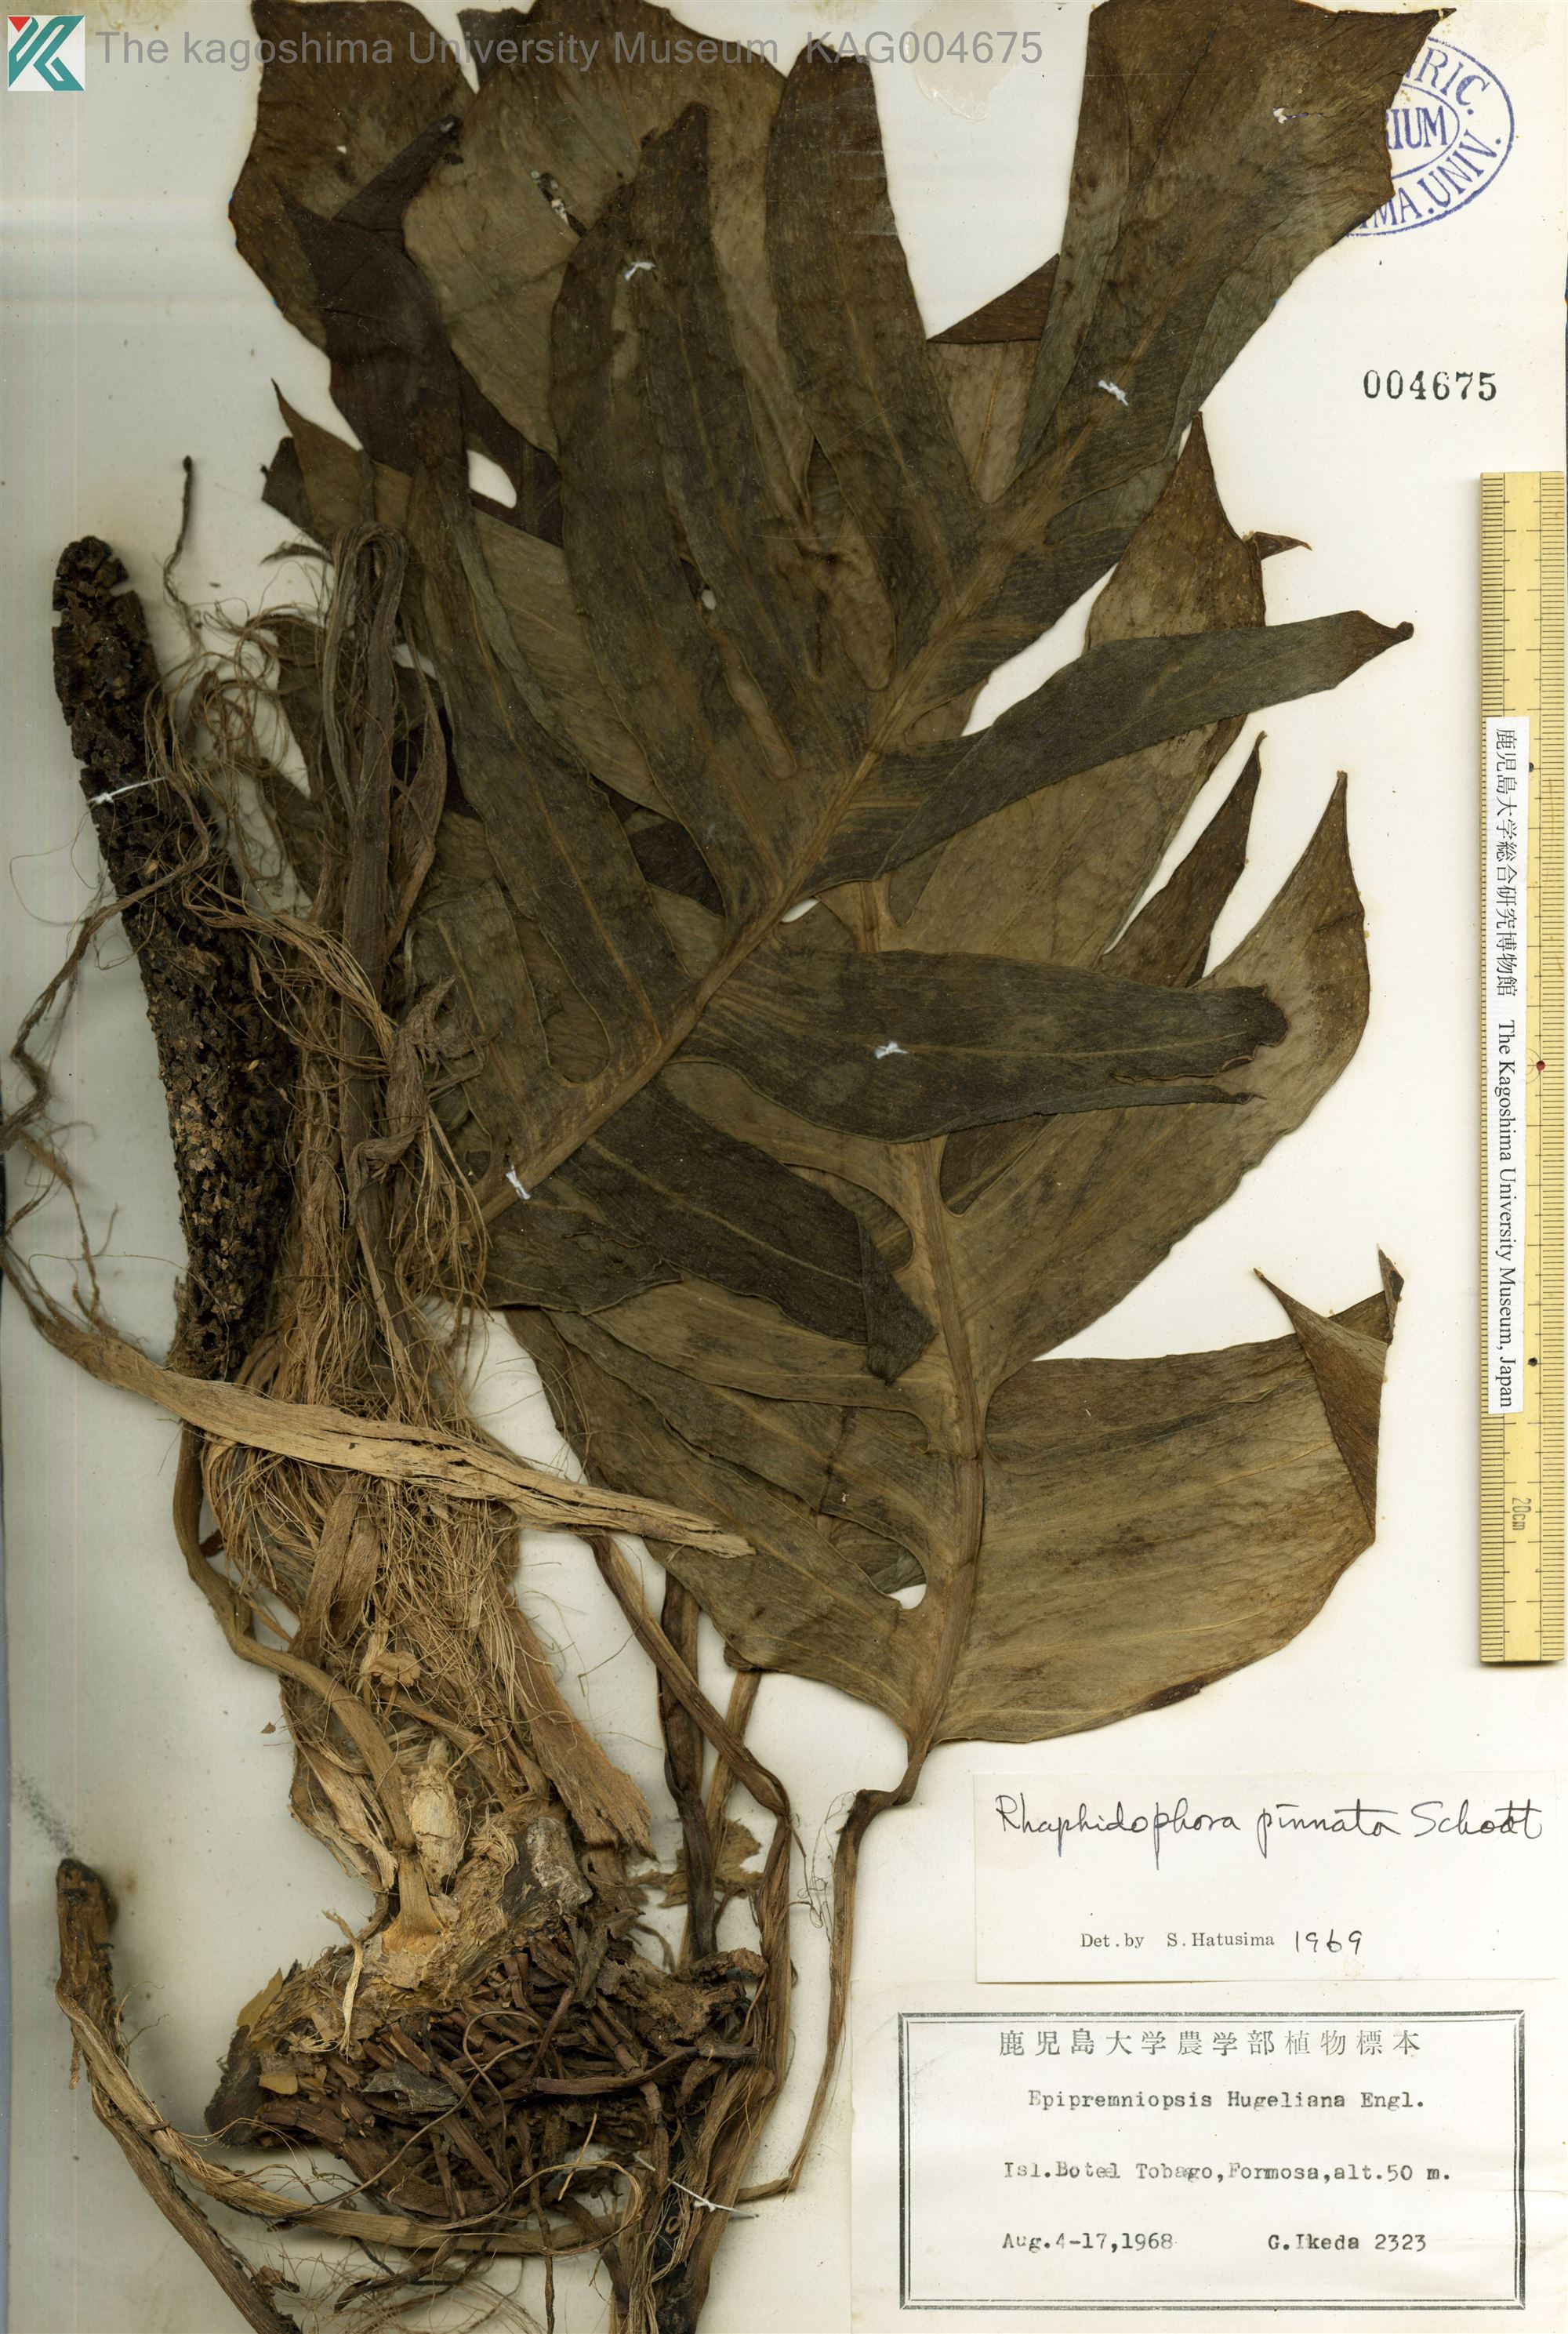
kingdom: Plantae
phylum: Tracheophyta
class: Liliopsida
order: Alismatales
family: Araceae
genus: Epipremnum
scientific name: Epipremnum pinnatum
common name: Centipede tongavine
